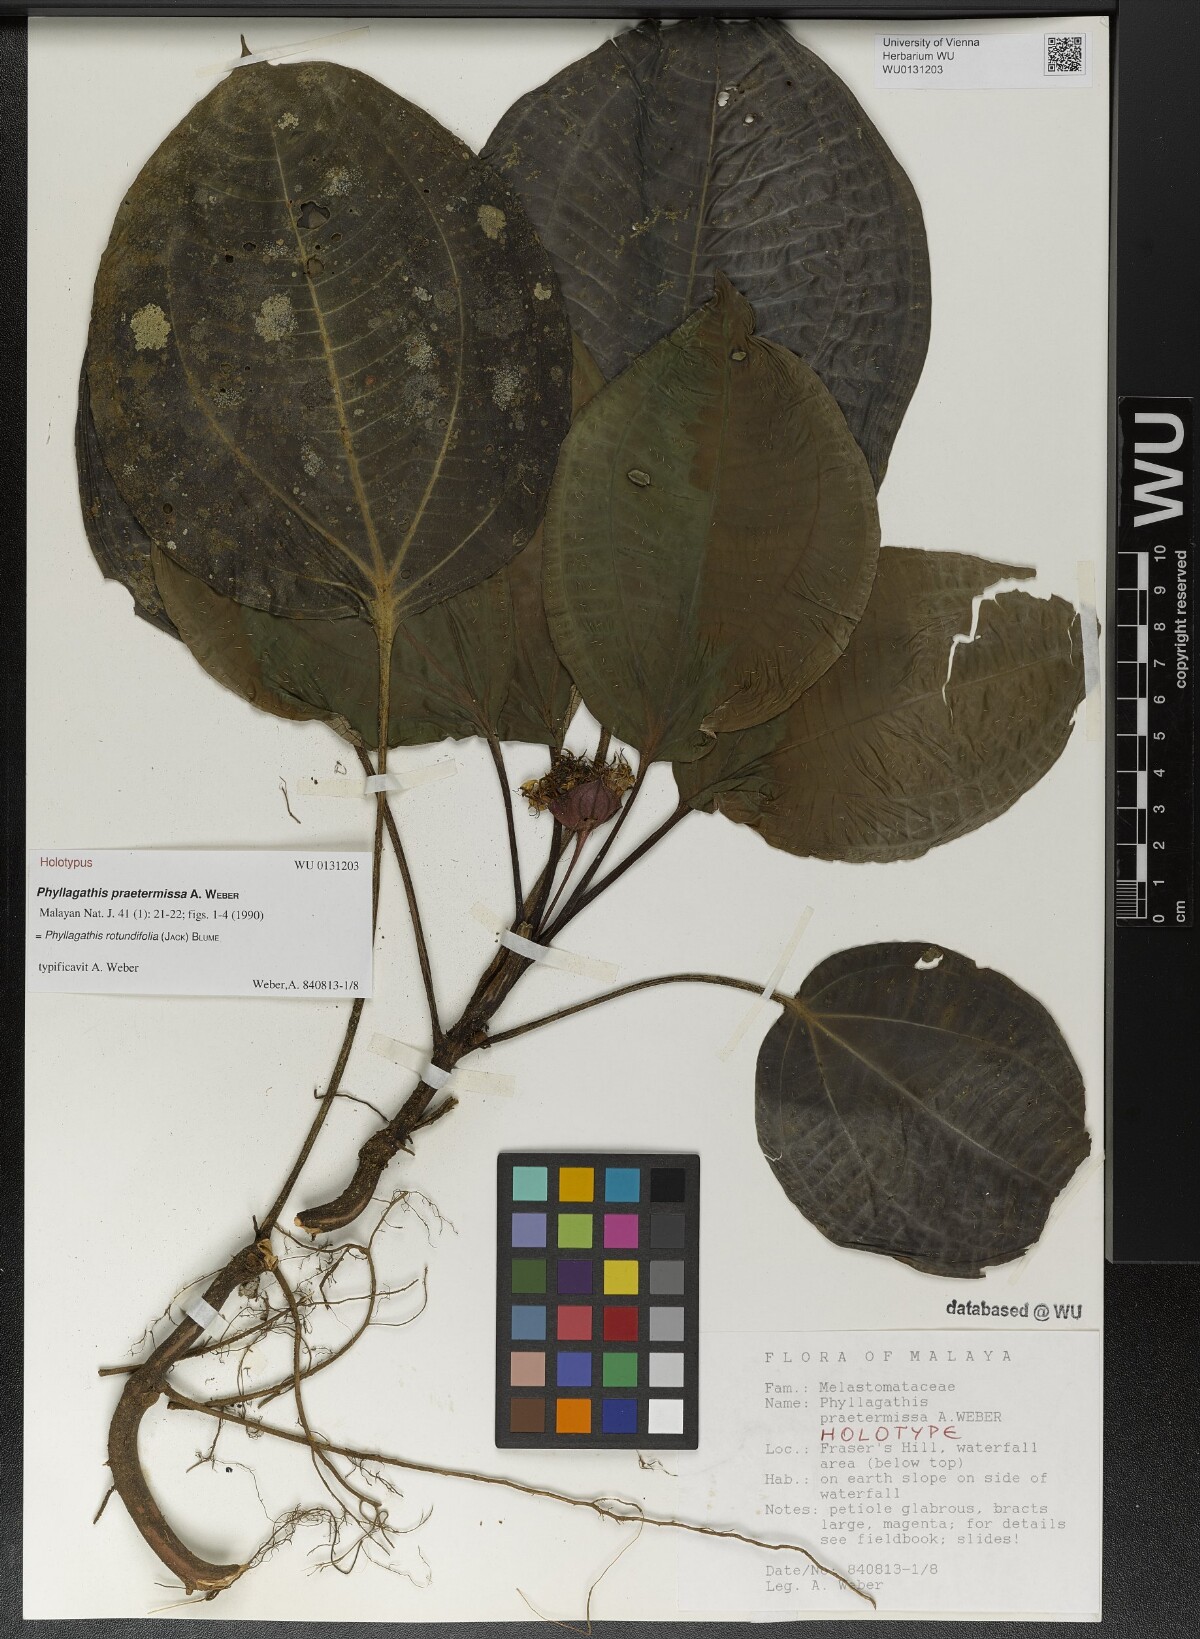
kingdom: Plantae
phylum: Tracheophyta
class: Magnoliopsida
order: Myrtales
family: Melastomataceae
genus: Phyllagathis
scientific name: Phyllagathis rotundifolia
